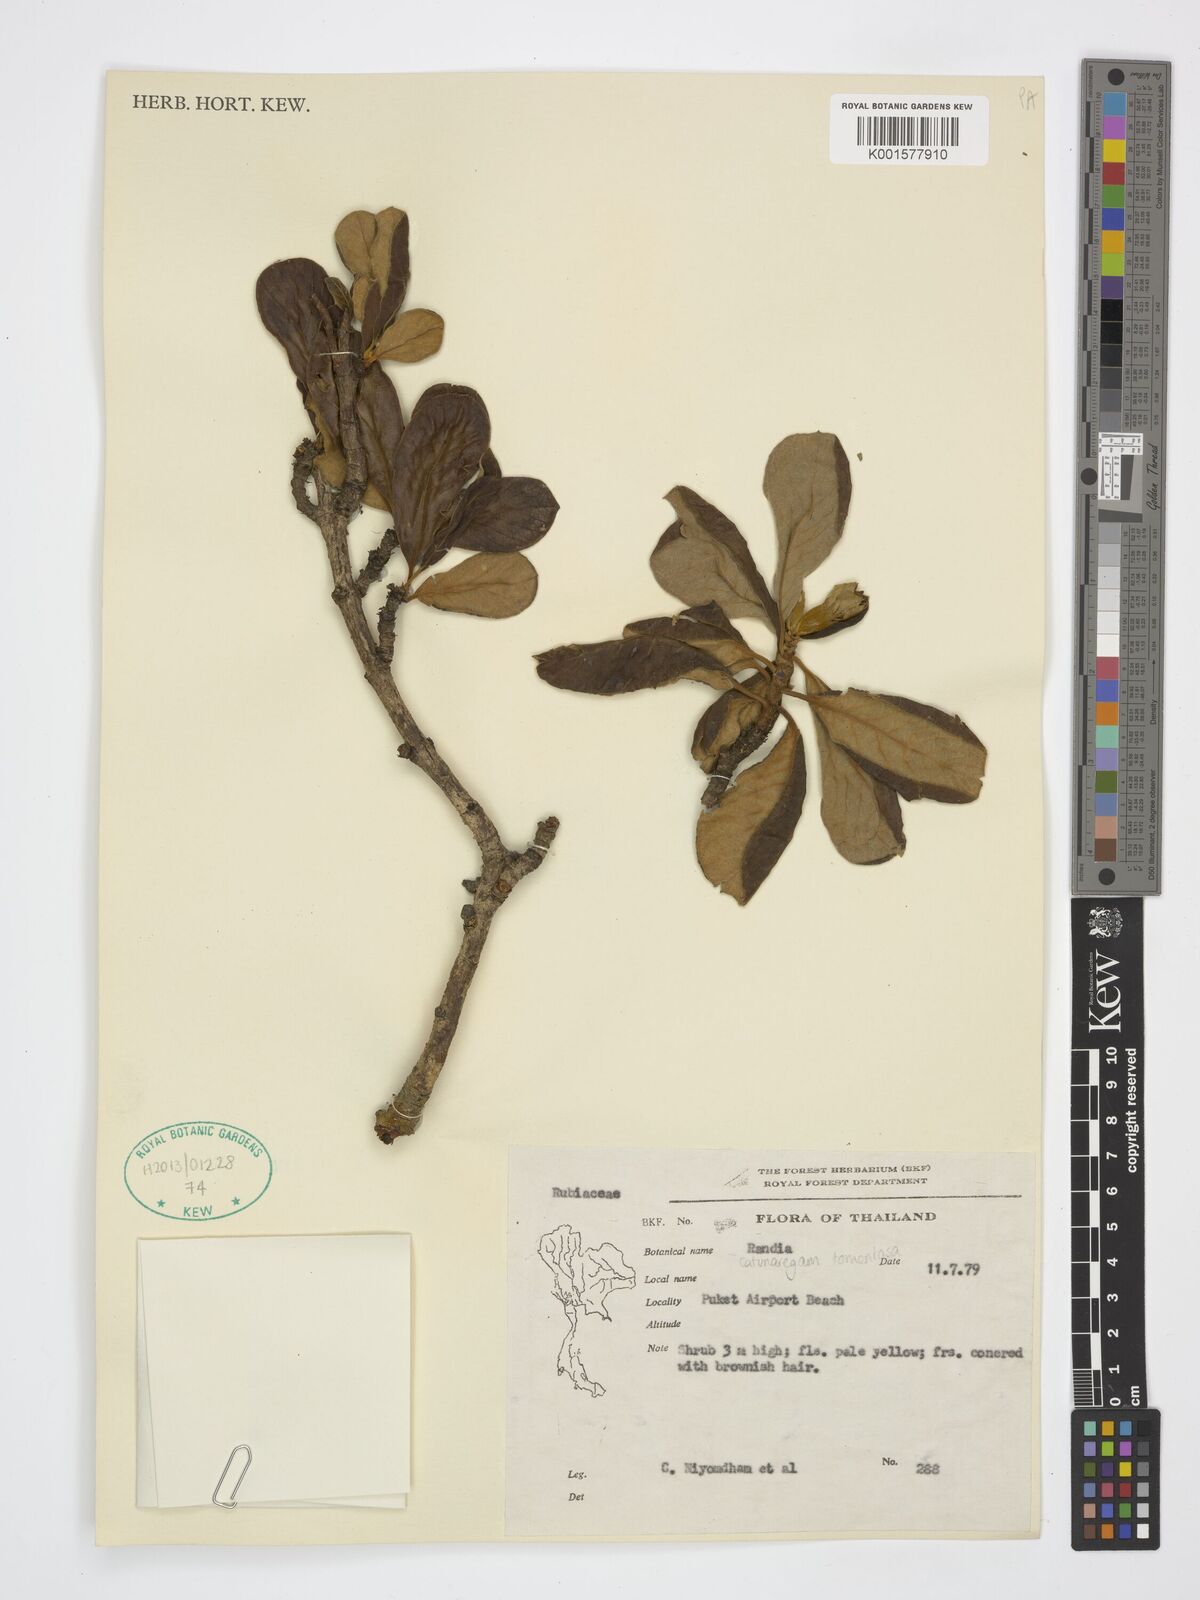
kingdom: Plantae
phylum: Tracheophyta
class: Magnoliopsida
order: Gentianales
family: Rubiaceae
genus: Catunaregam
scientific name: Catunaregam tomentosa
